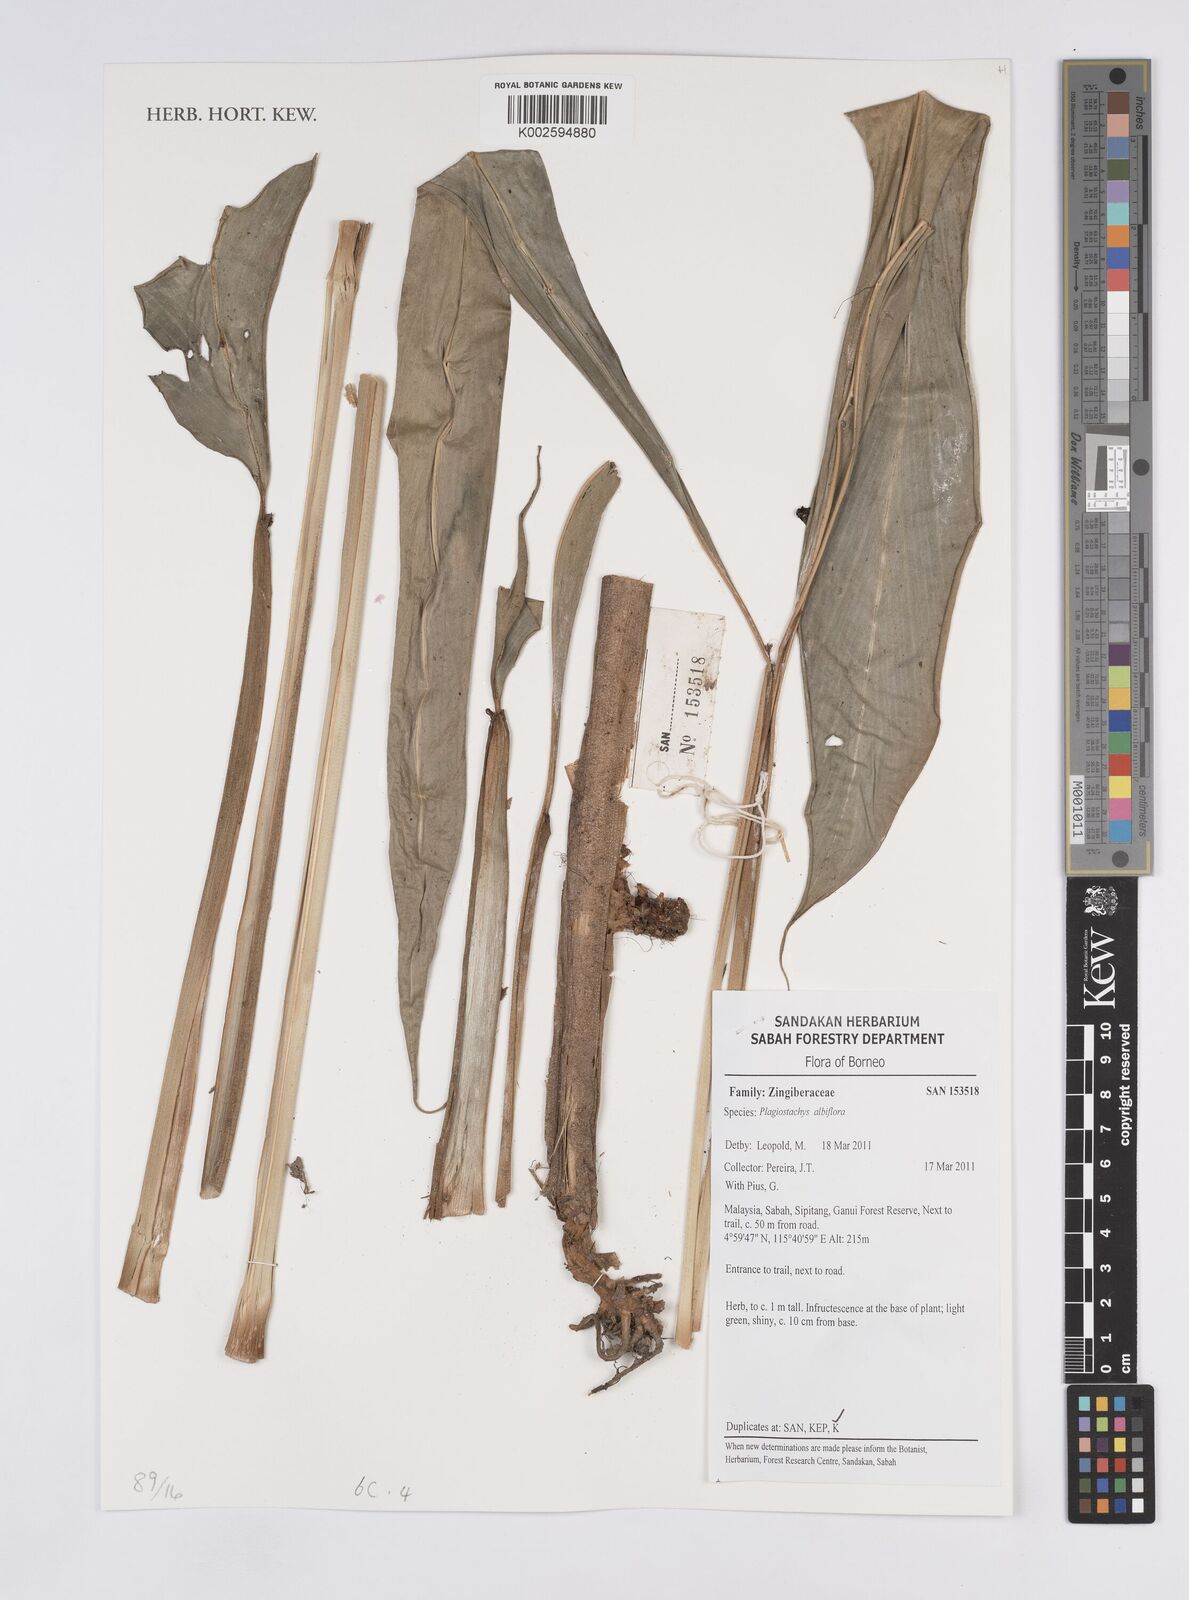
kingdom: Plantae
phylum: Tracheophyta
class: Liliopsida
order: Zingiberales
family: Zingiberaceae
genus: Plagiostachys
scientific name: Plagiostachys
